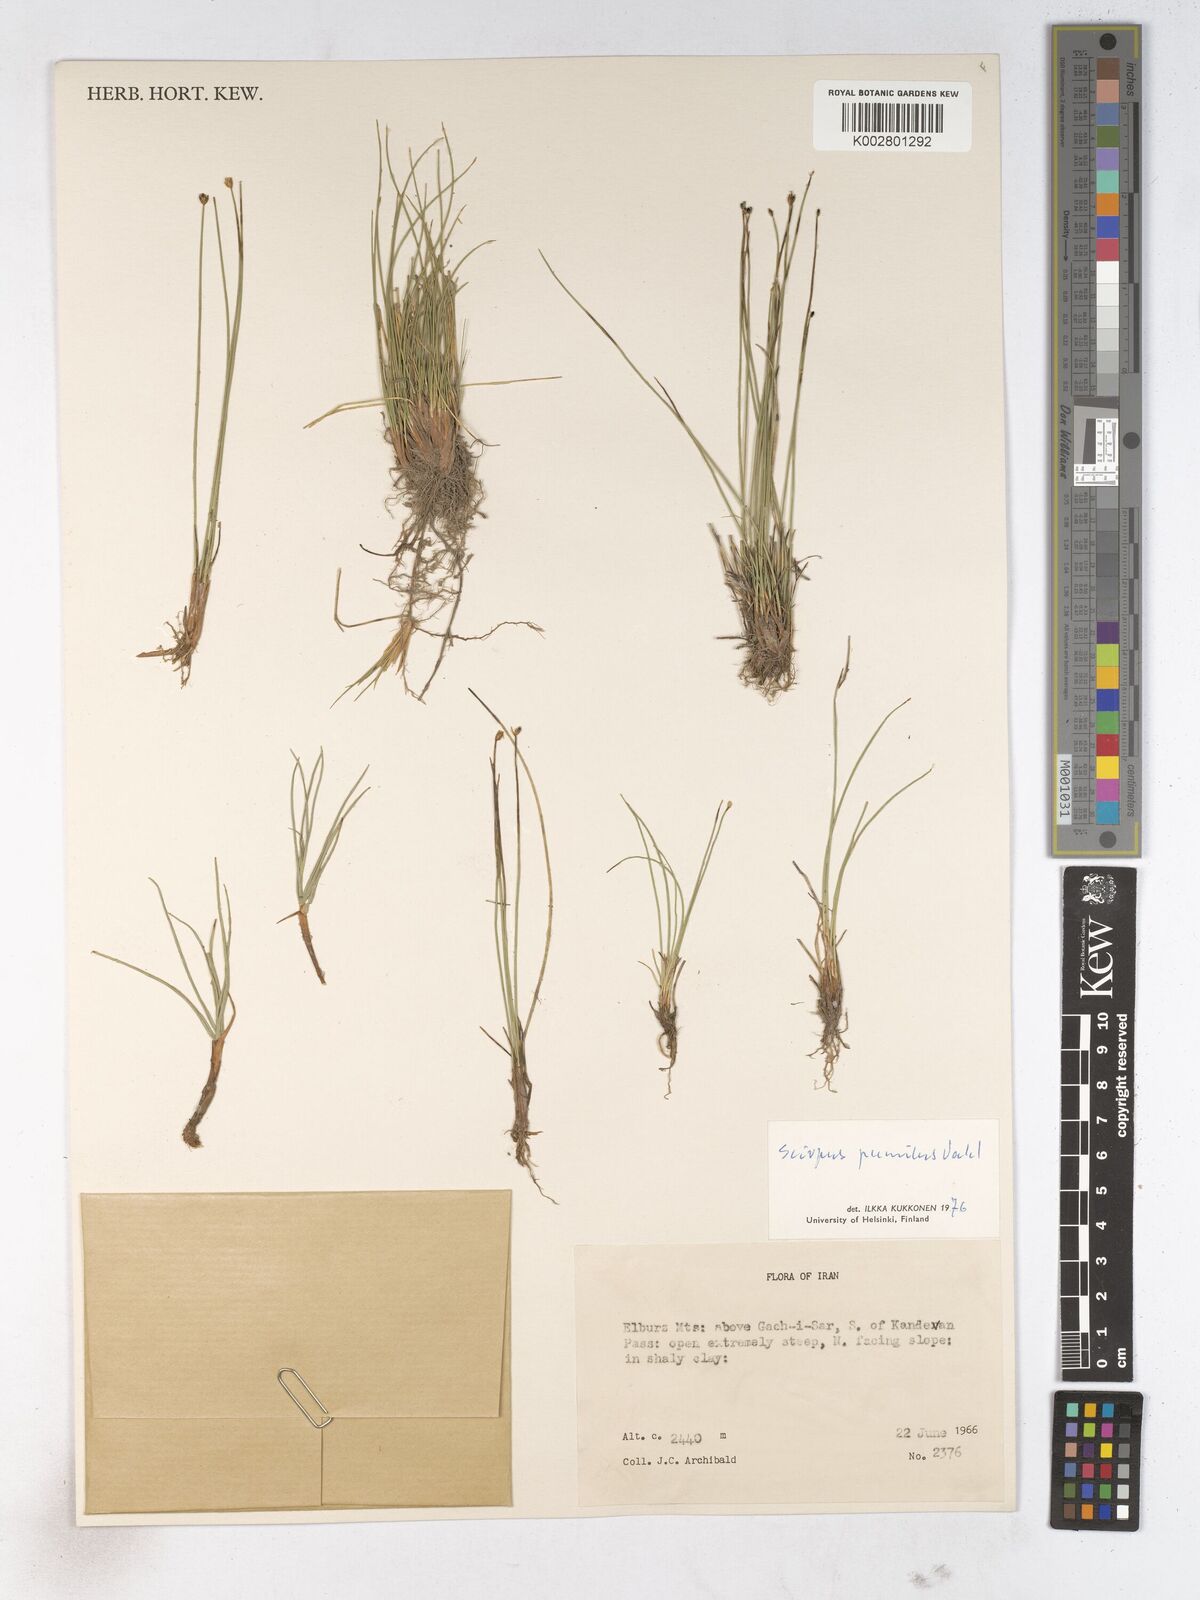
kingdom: Plantae
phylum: Tracheophyta
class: Liliopsida
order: Poales
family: Cyperaceae
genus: Trichophorum
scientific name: Trichophorum pumilum
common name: Rolland's bulrush
